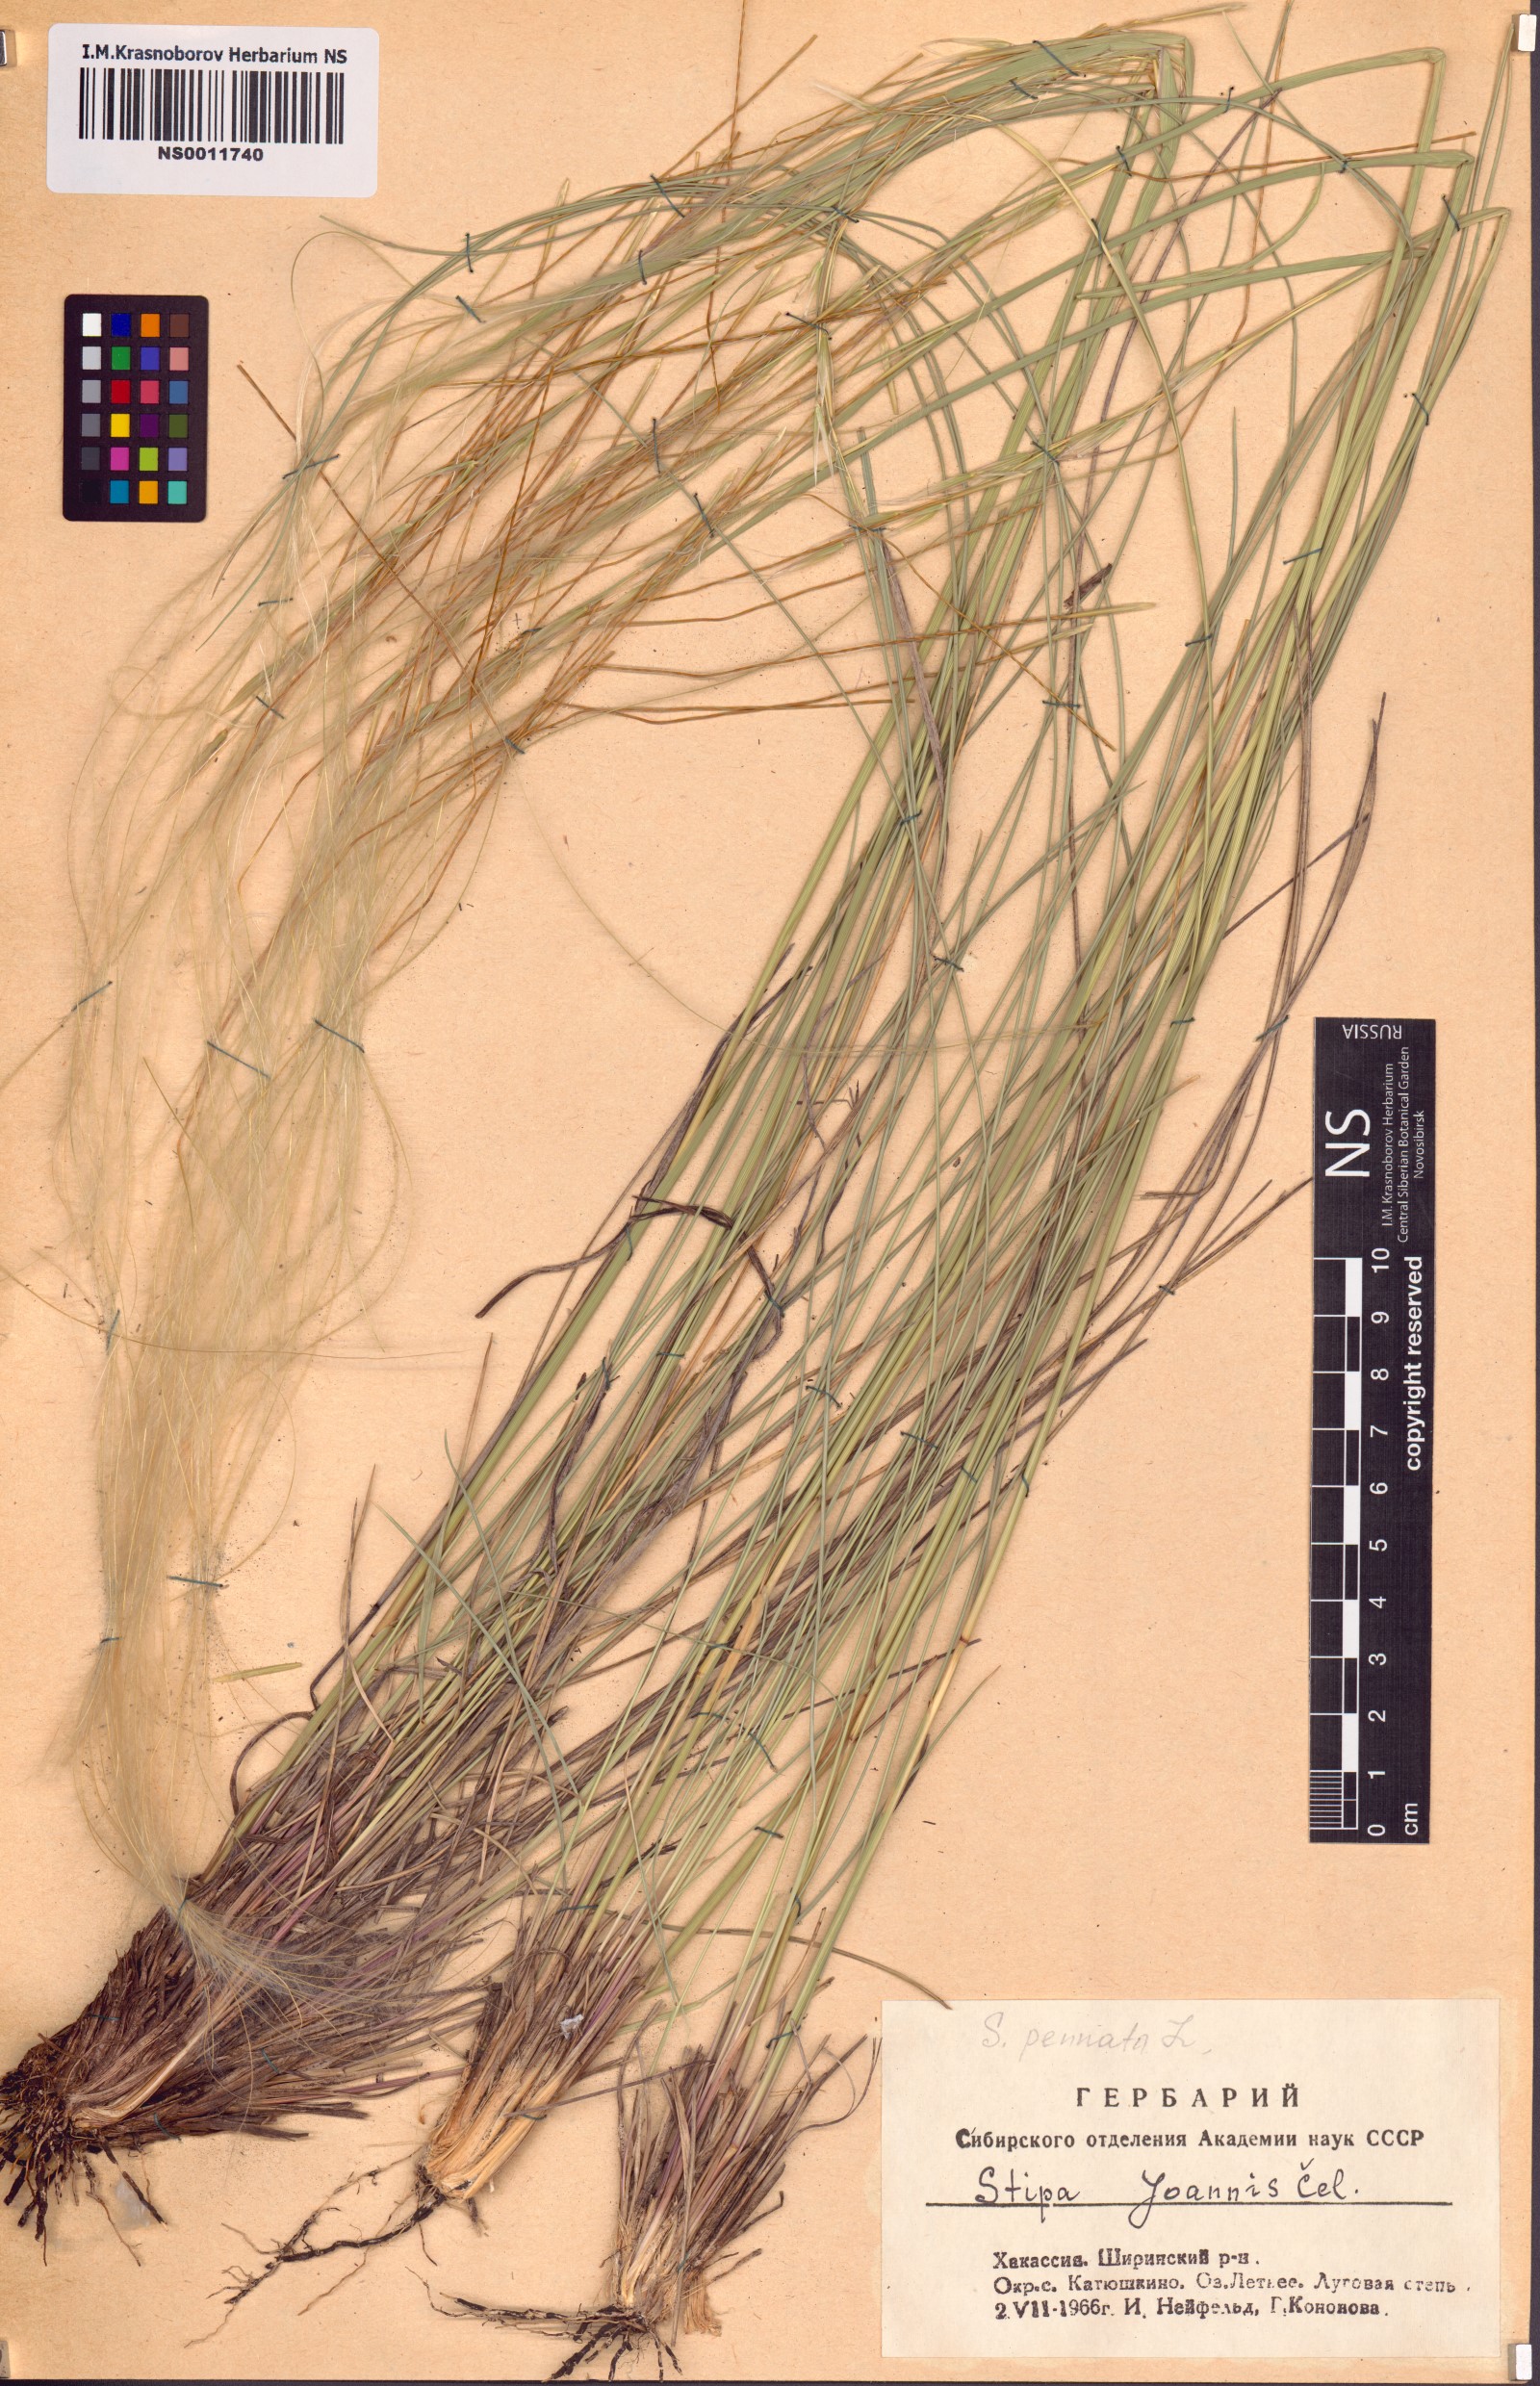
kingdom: Plantae
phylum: Tracheophyta
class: Liliopsida
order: Poales
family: Poaceae
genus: Stipa
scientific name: Stipa pennata
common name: European feather grass
